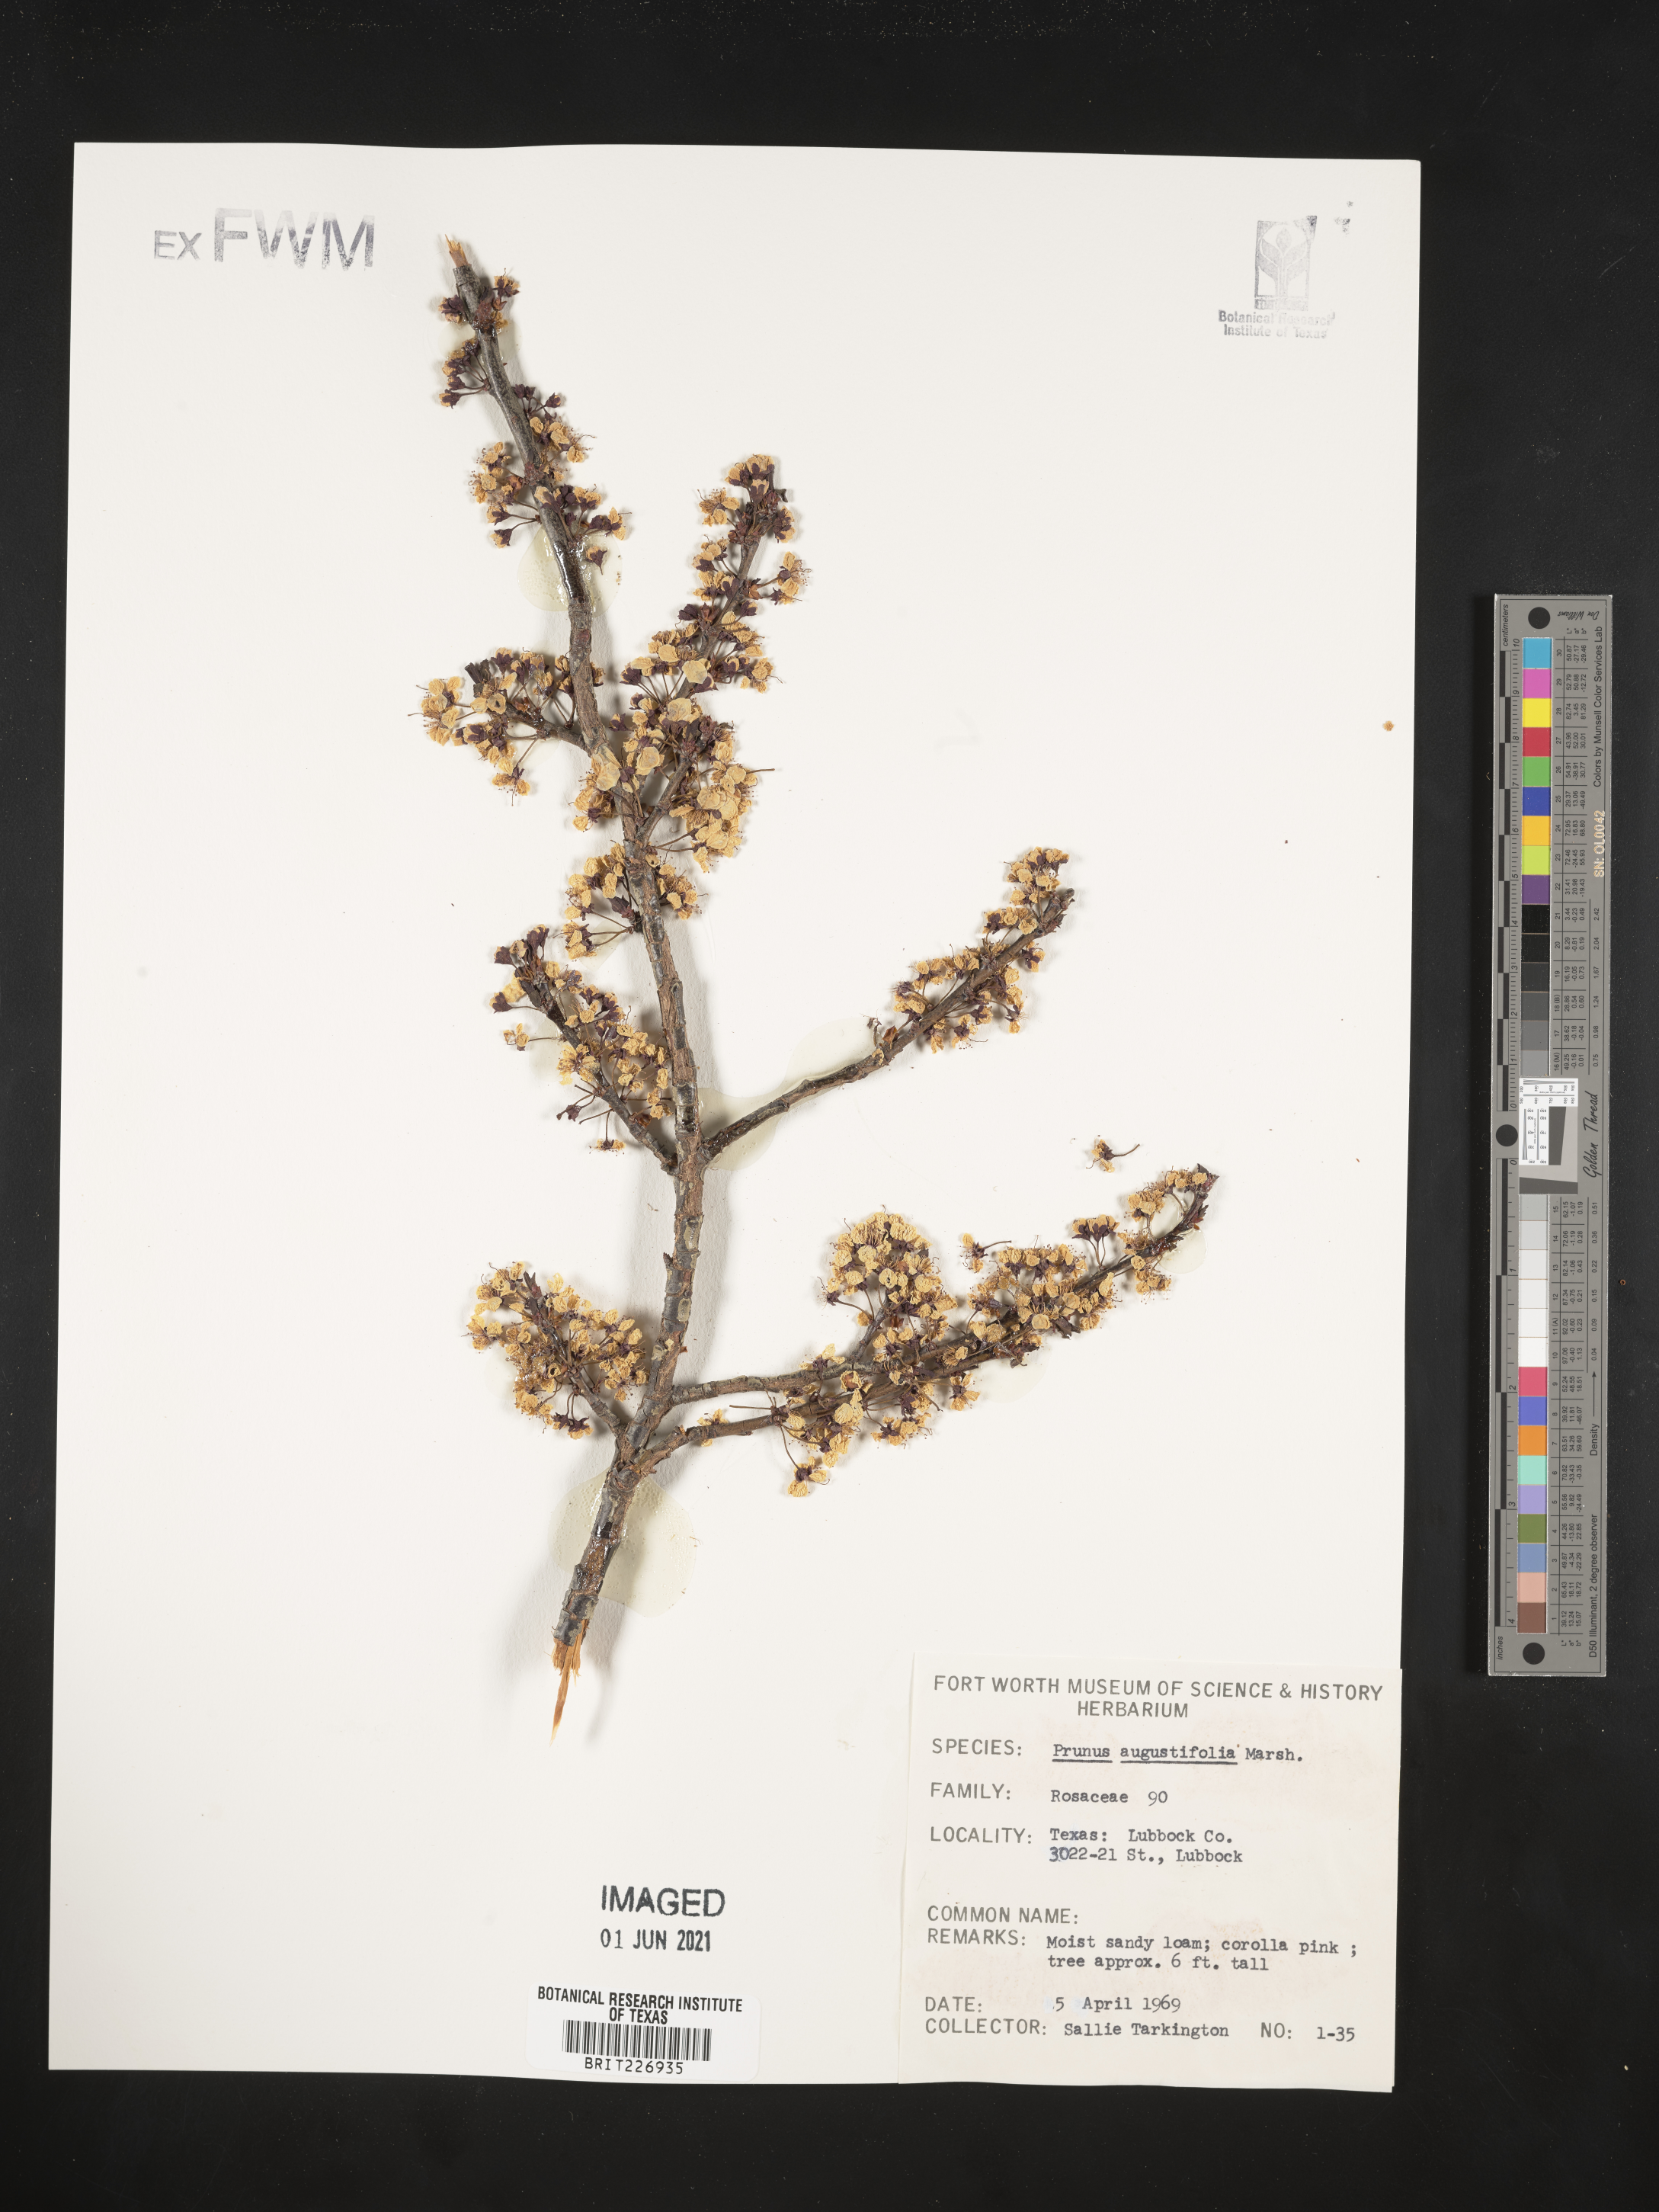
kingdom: Plantae
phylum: Tracheophyta
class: Magnoliopsida
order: Rosales
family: Rosaceae
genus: Prunus
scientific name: Prunus angustifolia
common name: Cherokee plum
